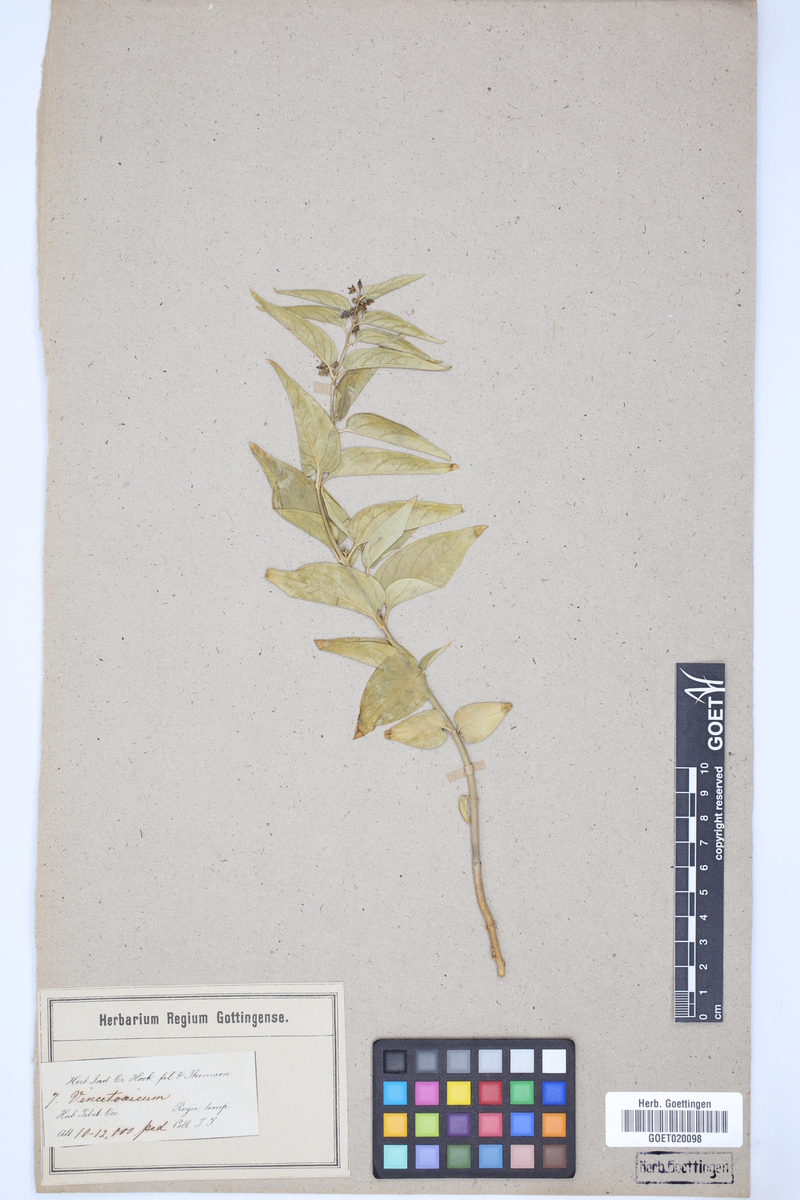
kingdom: Plantae
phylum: Tracheophyta
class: Magnoliopsida
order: Gentianales
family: Apocynaceae
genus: Vincetoxicum
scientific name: Vincetoxicum canescens
